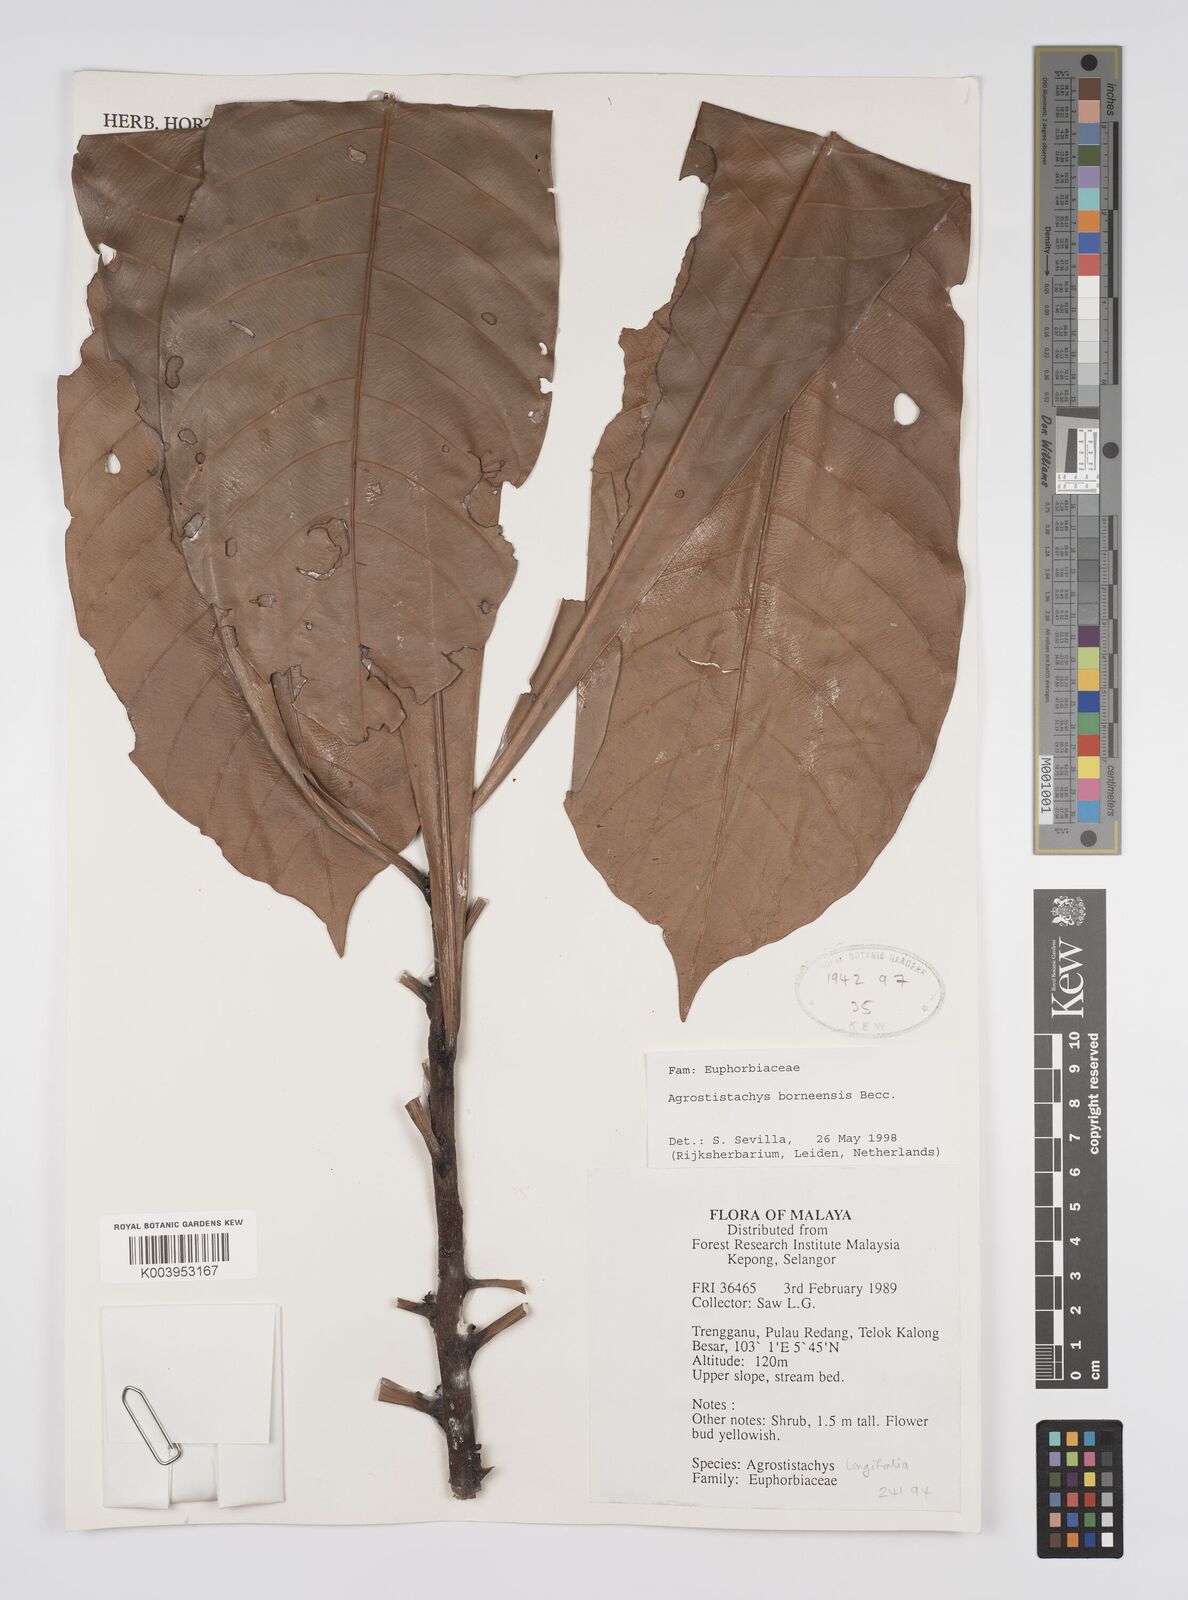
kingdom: Plantae
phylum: Tracheophyta
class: Magnoliopsida
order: Malpighiales
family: Euphorbiaceae
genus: Agrostistachys
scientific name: Agrostistachys borneensis
